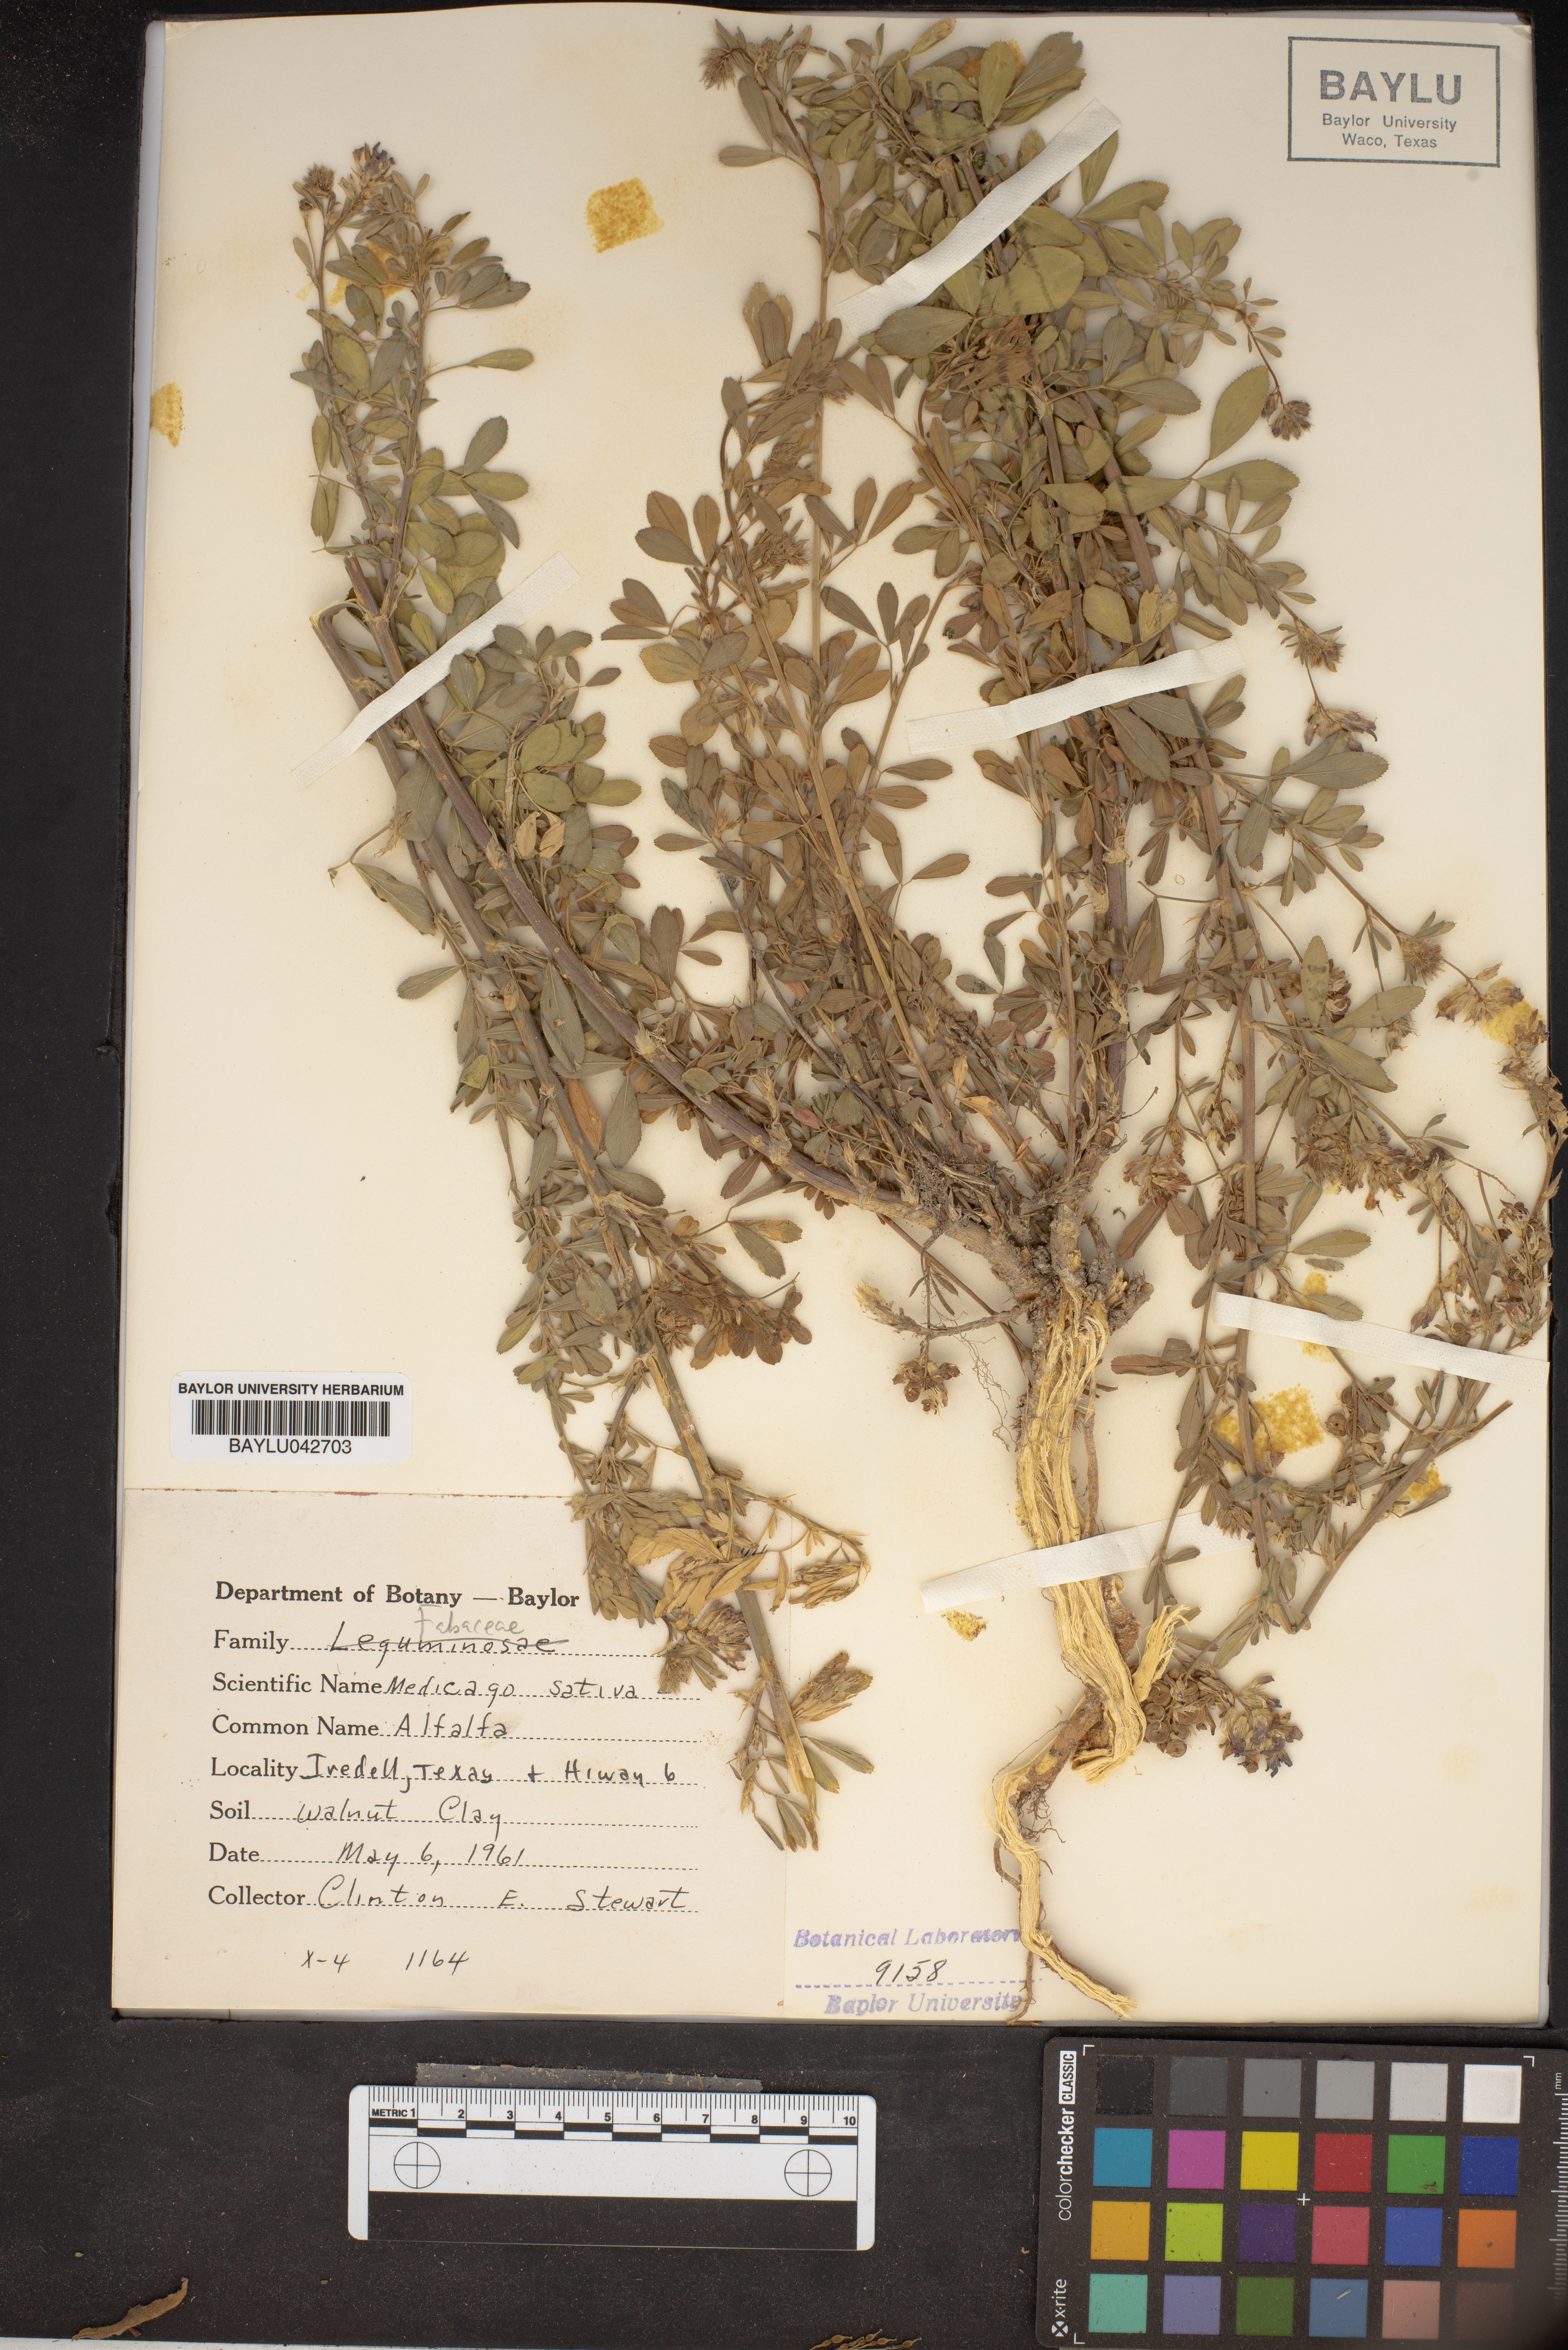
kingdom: Plantae
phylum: Tracheophyta
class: Magnoliopsida
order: Fabales
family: Fabaceae
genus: Medicago
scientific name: Medicago sativa
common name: Alfalfa
